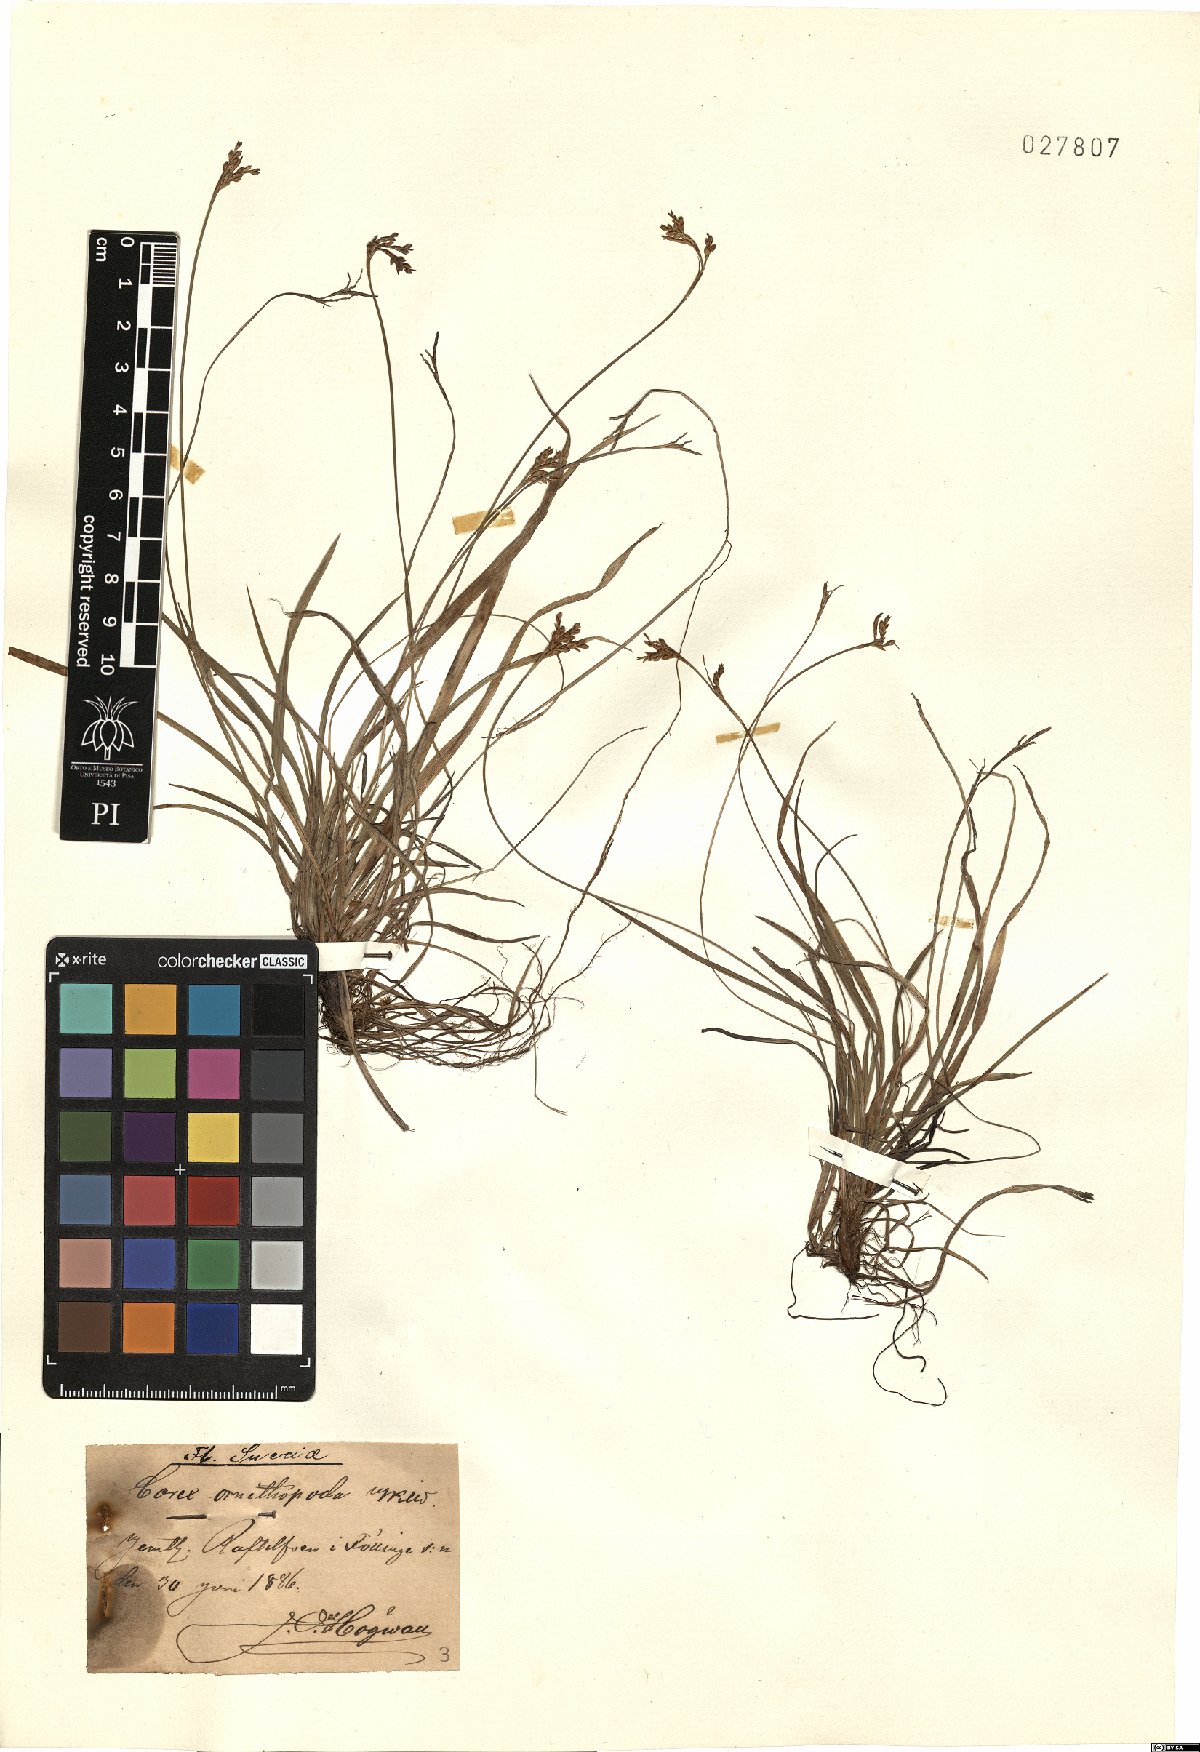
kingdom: Plantae
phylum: Tracheophyta
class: Liliopsida
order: Poales
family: Cyperaceae
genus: Carex
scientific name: Carex ornithopoda
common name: Bird's-foot sedge
